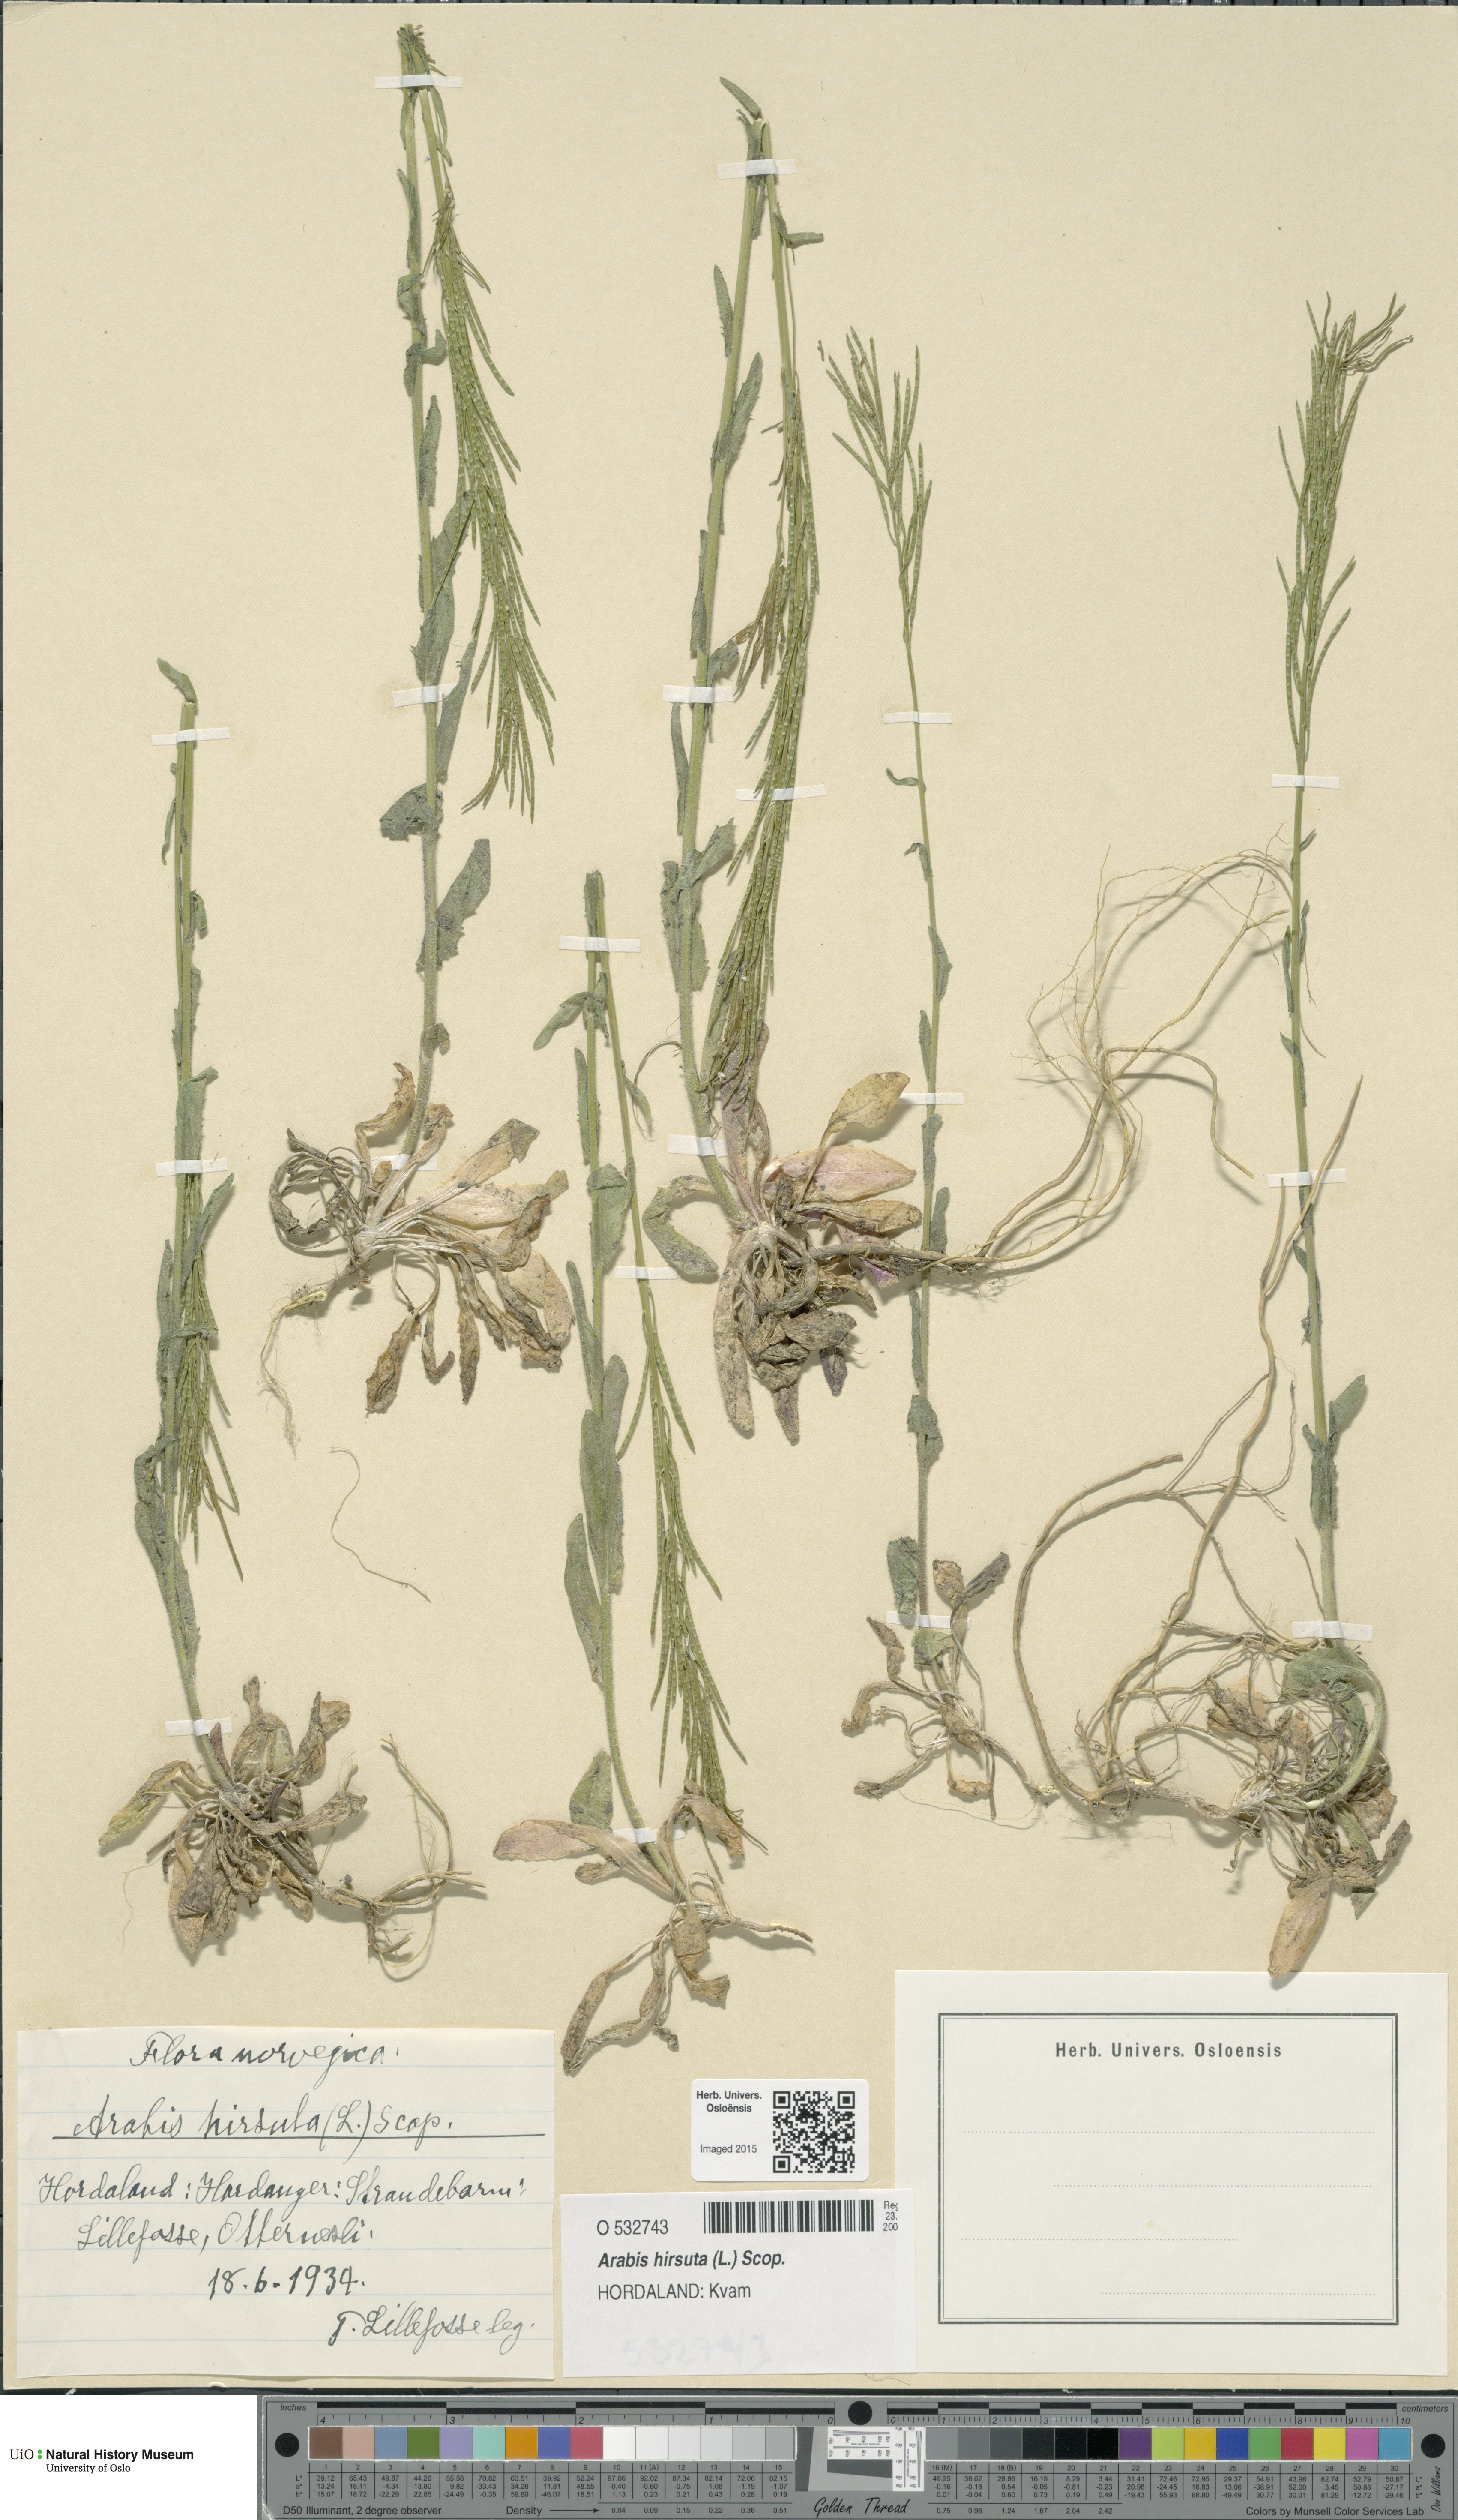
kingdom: Plantae
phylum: Tracheophyta
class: Magnoliopsida
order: Brassicales
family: Brassicaceae
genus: Arabis
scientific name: Arabis hirsuta
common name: Hairy rock-cress
